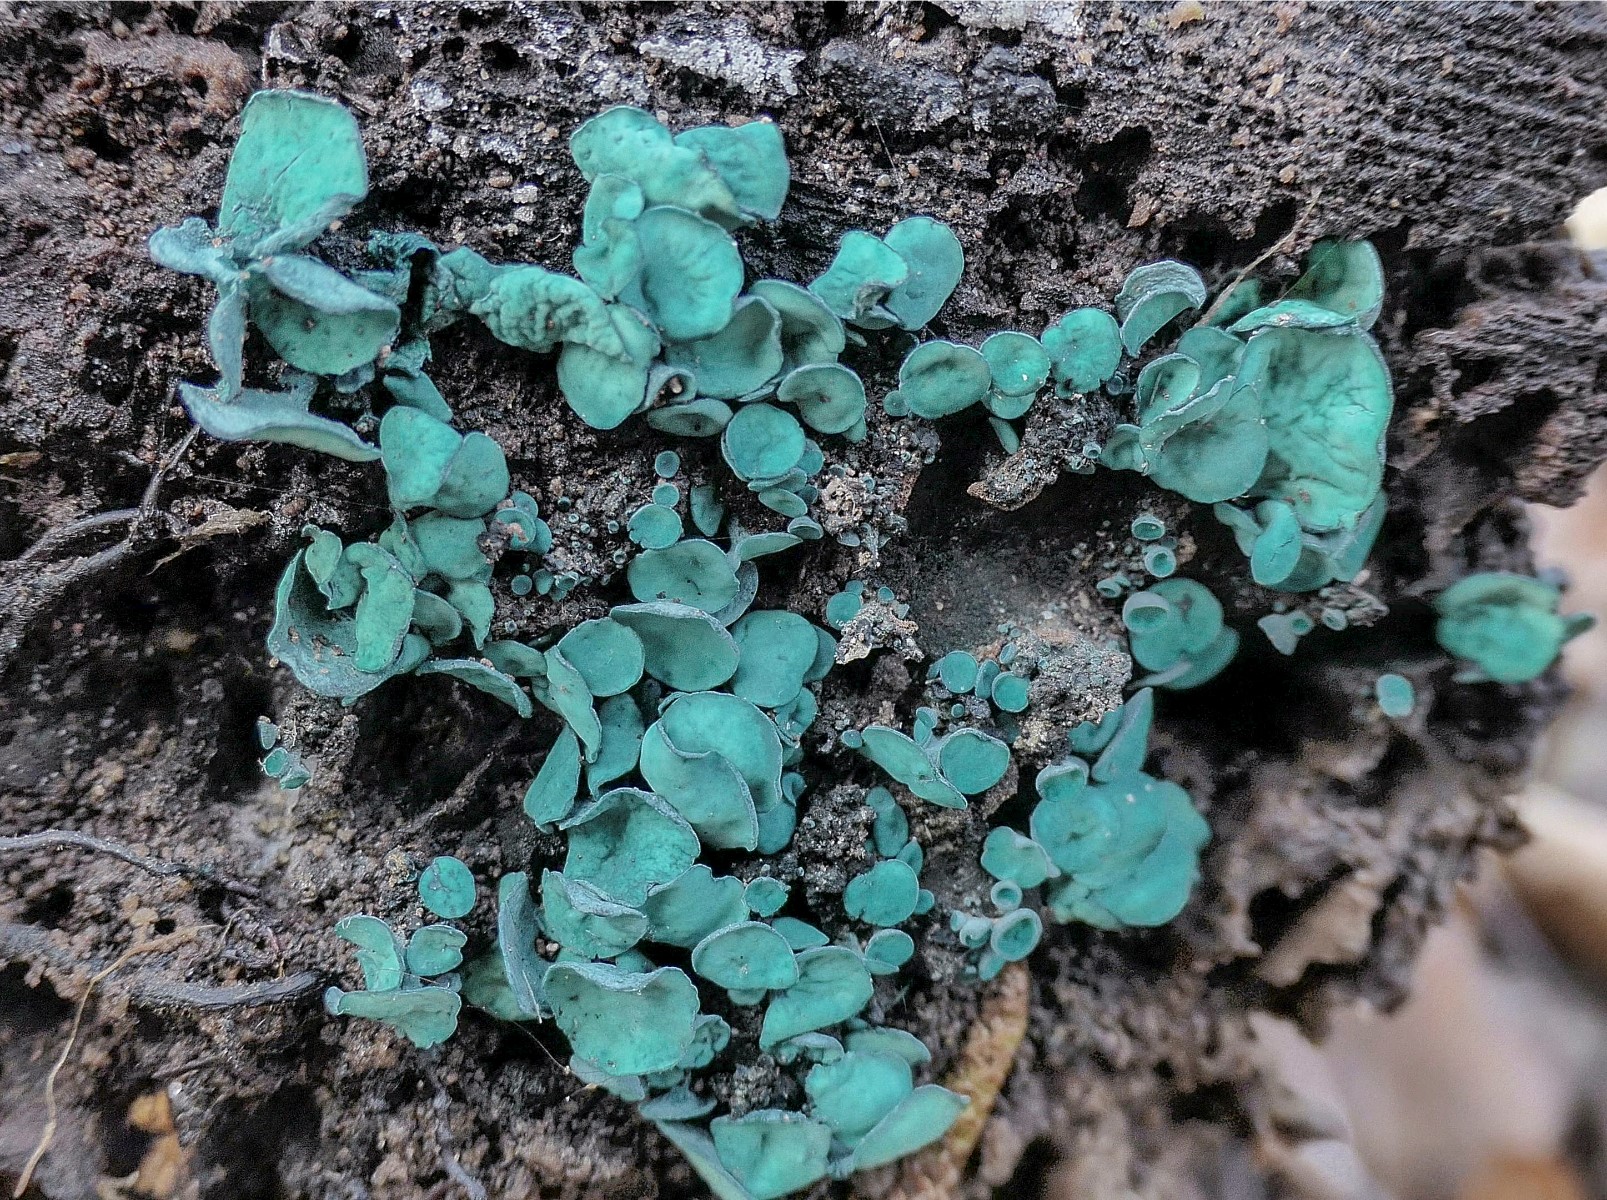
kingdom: Fungi
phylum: Ascomycota
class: Leotiomycetes
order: Helotiales
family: Chlorociboriaceae
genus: Chlorociboria
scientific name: Chlorociboria aeruginascens
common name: almindelig grønskive
